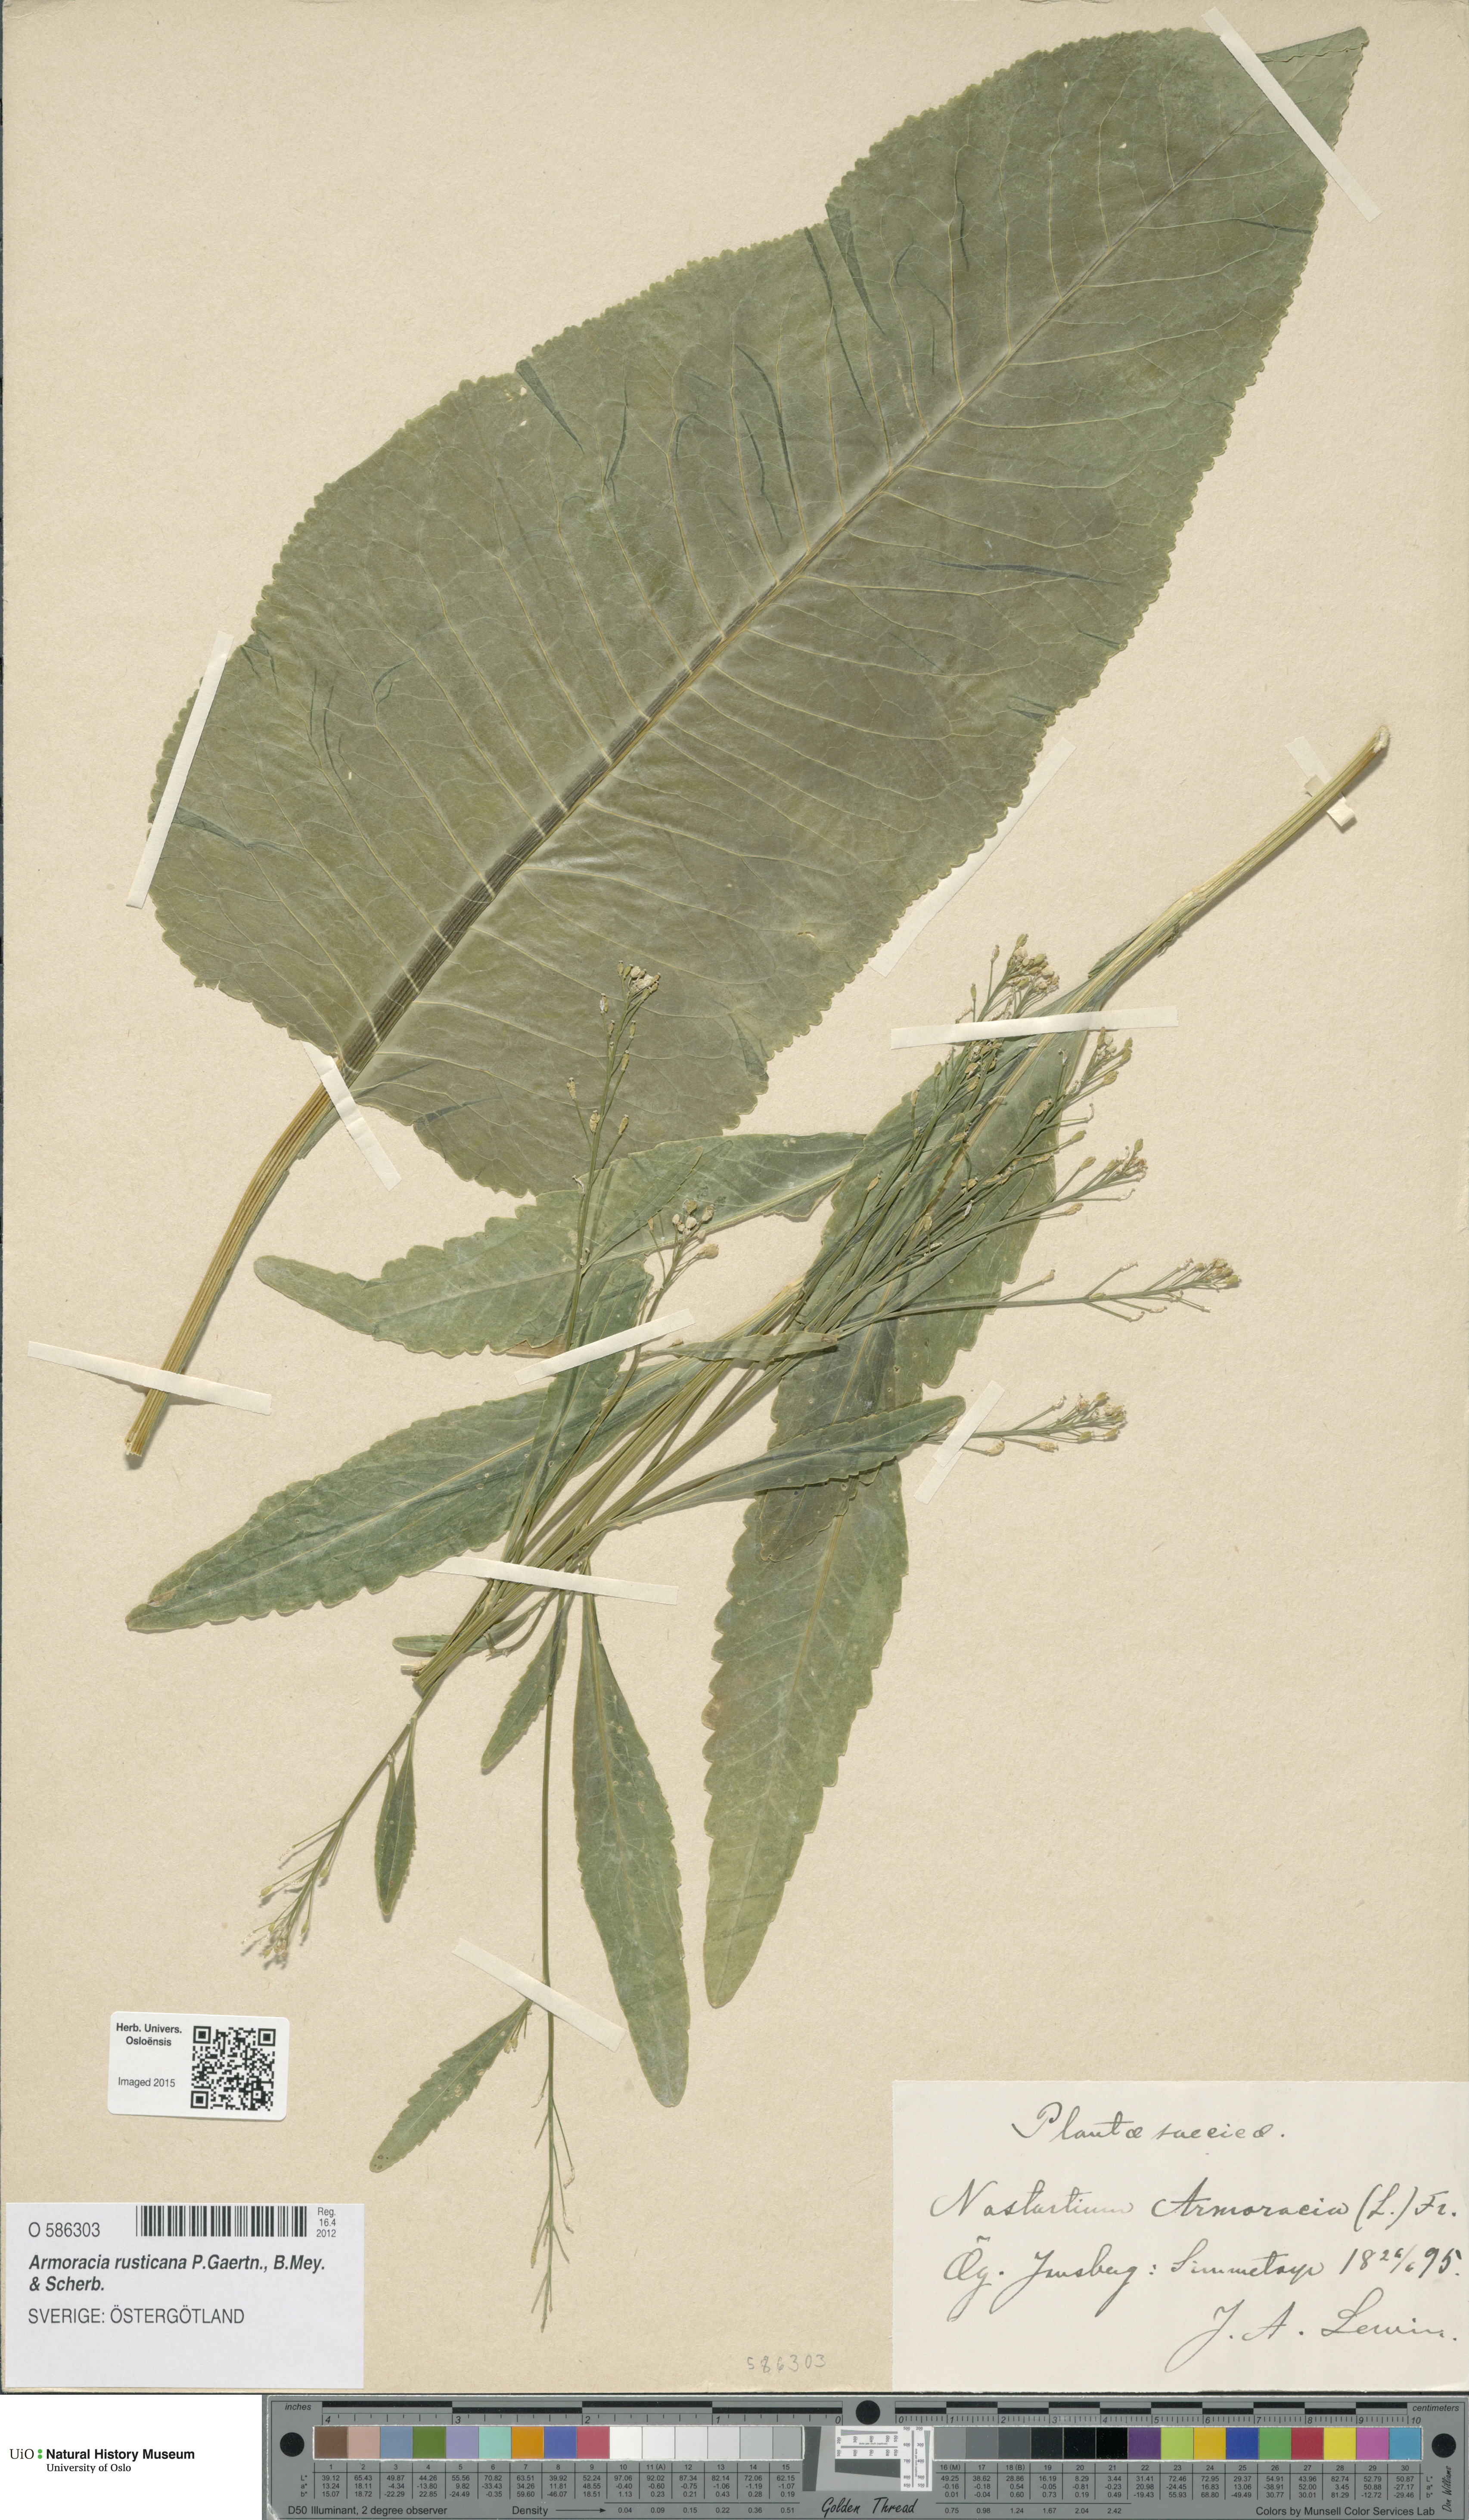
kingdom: Plantae
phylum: Tracheophyta
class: Magnoliopsida
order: Brassicales
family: Brassicaceae
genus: Armoracia
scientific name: Armoracia rusticana
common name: Horseradish
